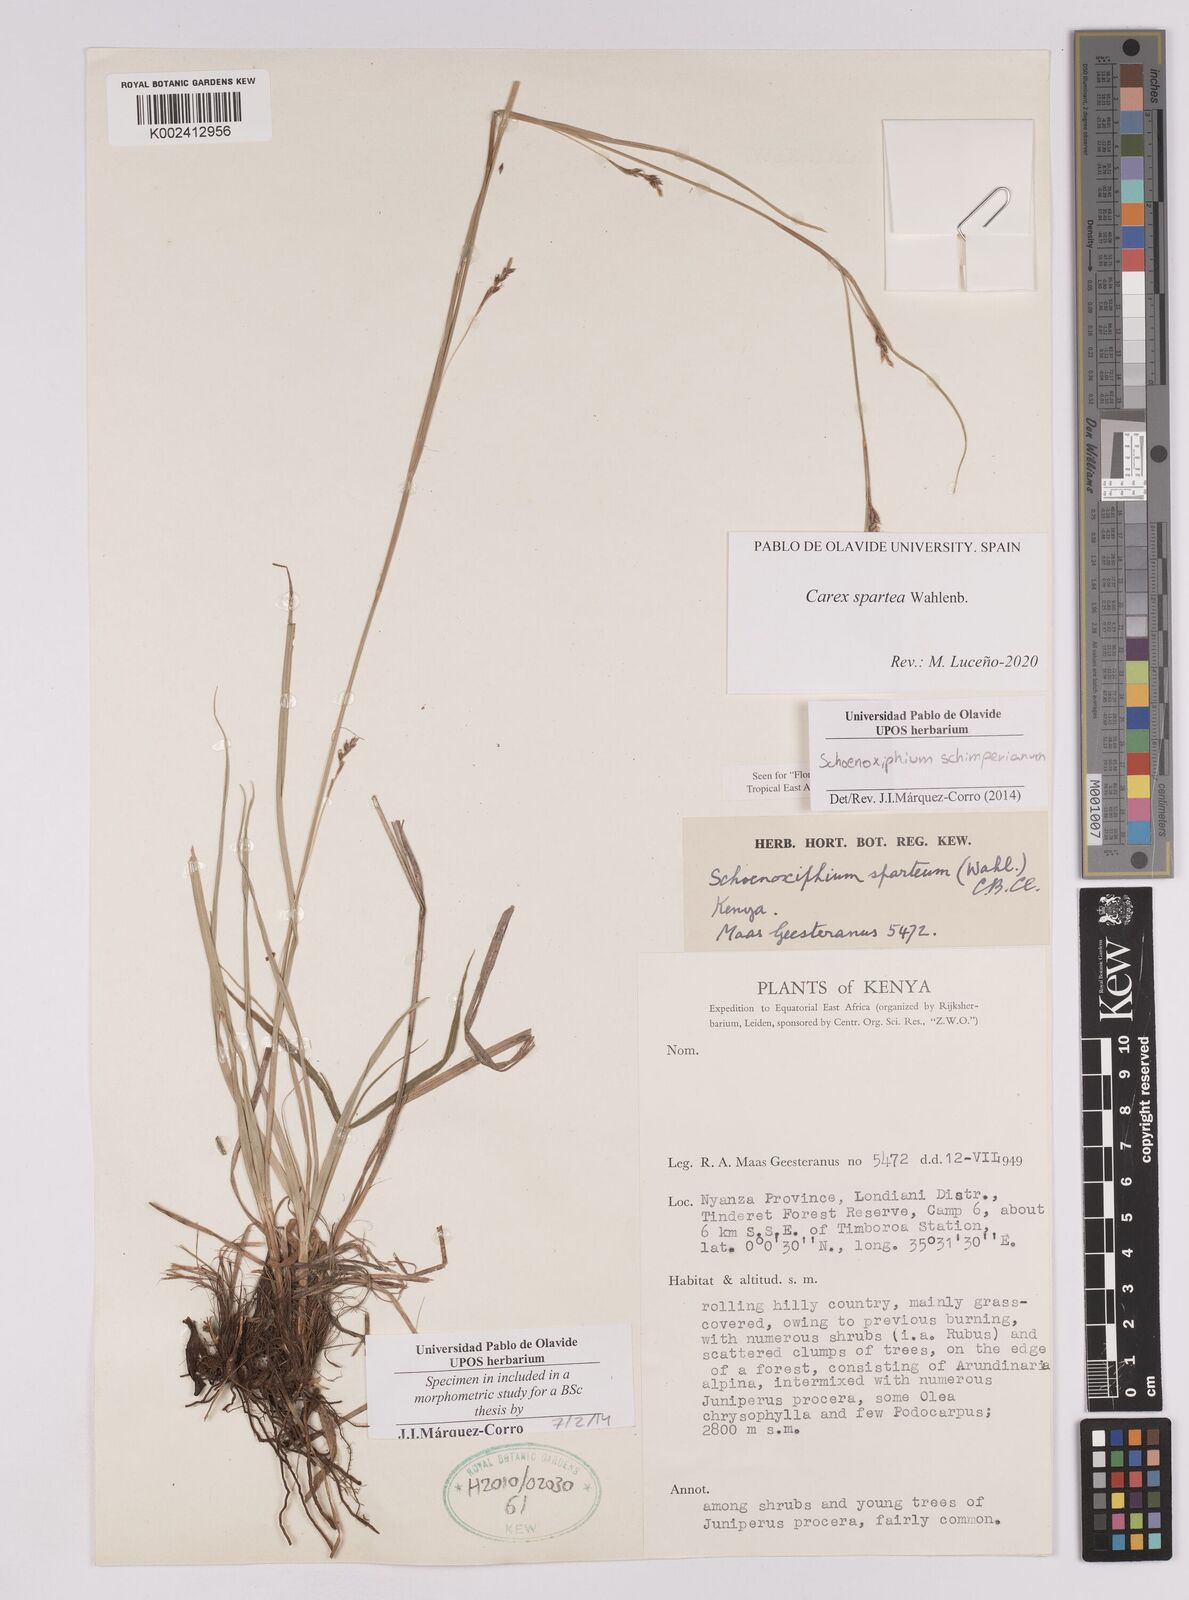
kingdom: Plantae
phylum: Tracheophyta
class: Liliopsida
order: Poales
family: Cyperaceae
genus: Carex
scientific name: Carex schimperiana
